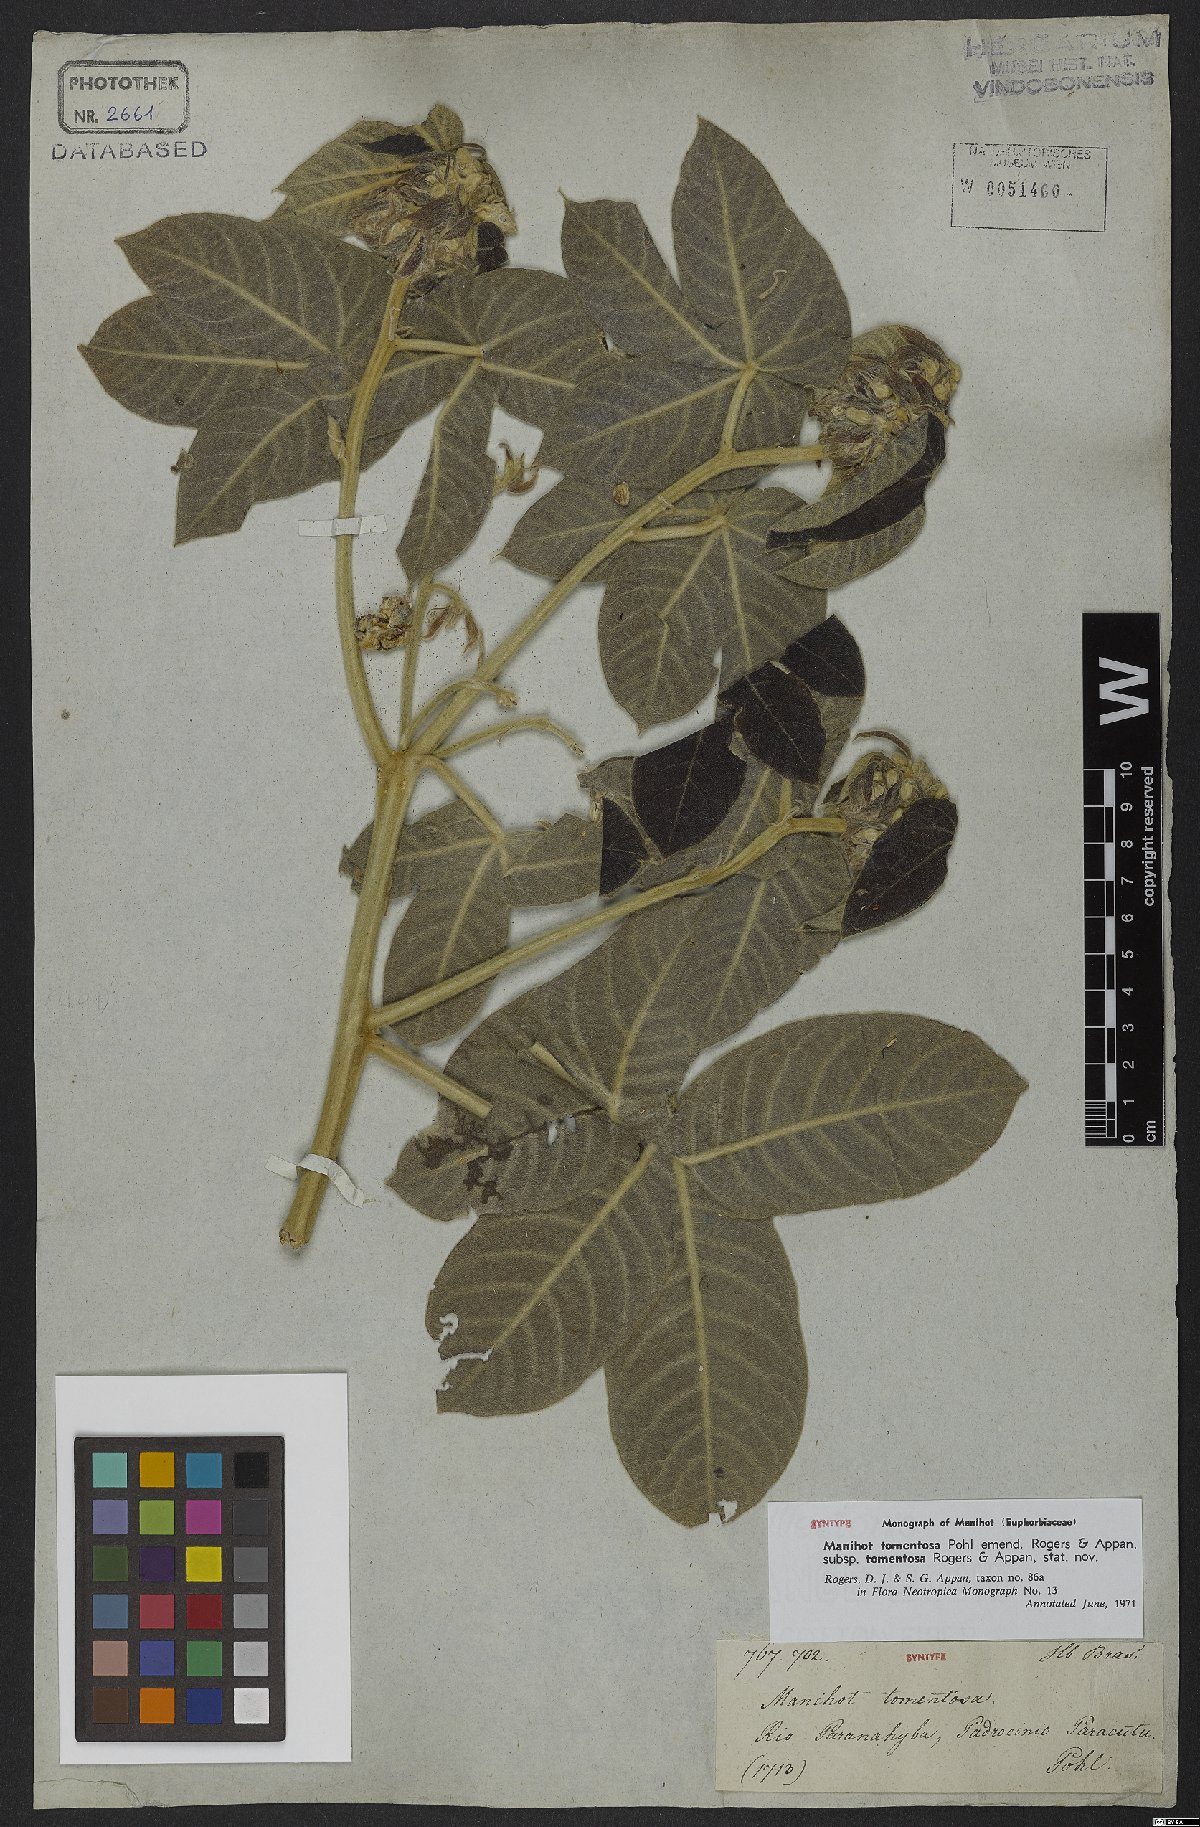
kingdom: Plantae
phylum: Tracheophyta
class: Magnoliopsida
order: Malpighiales
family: Euphorbiaceae
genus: Manihot
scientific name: Manihot tomentosa
